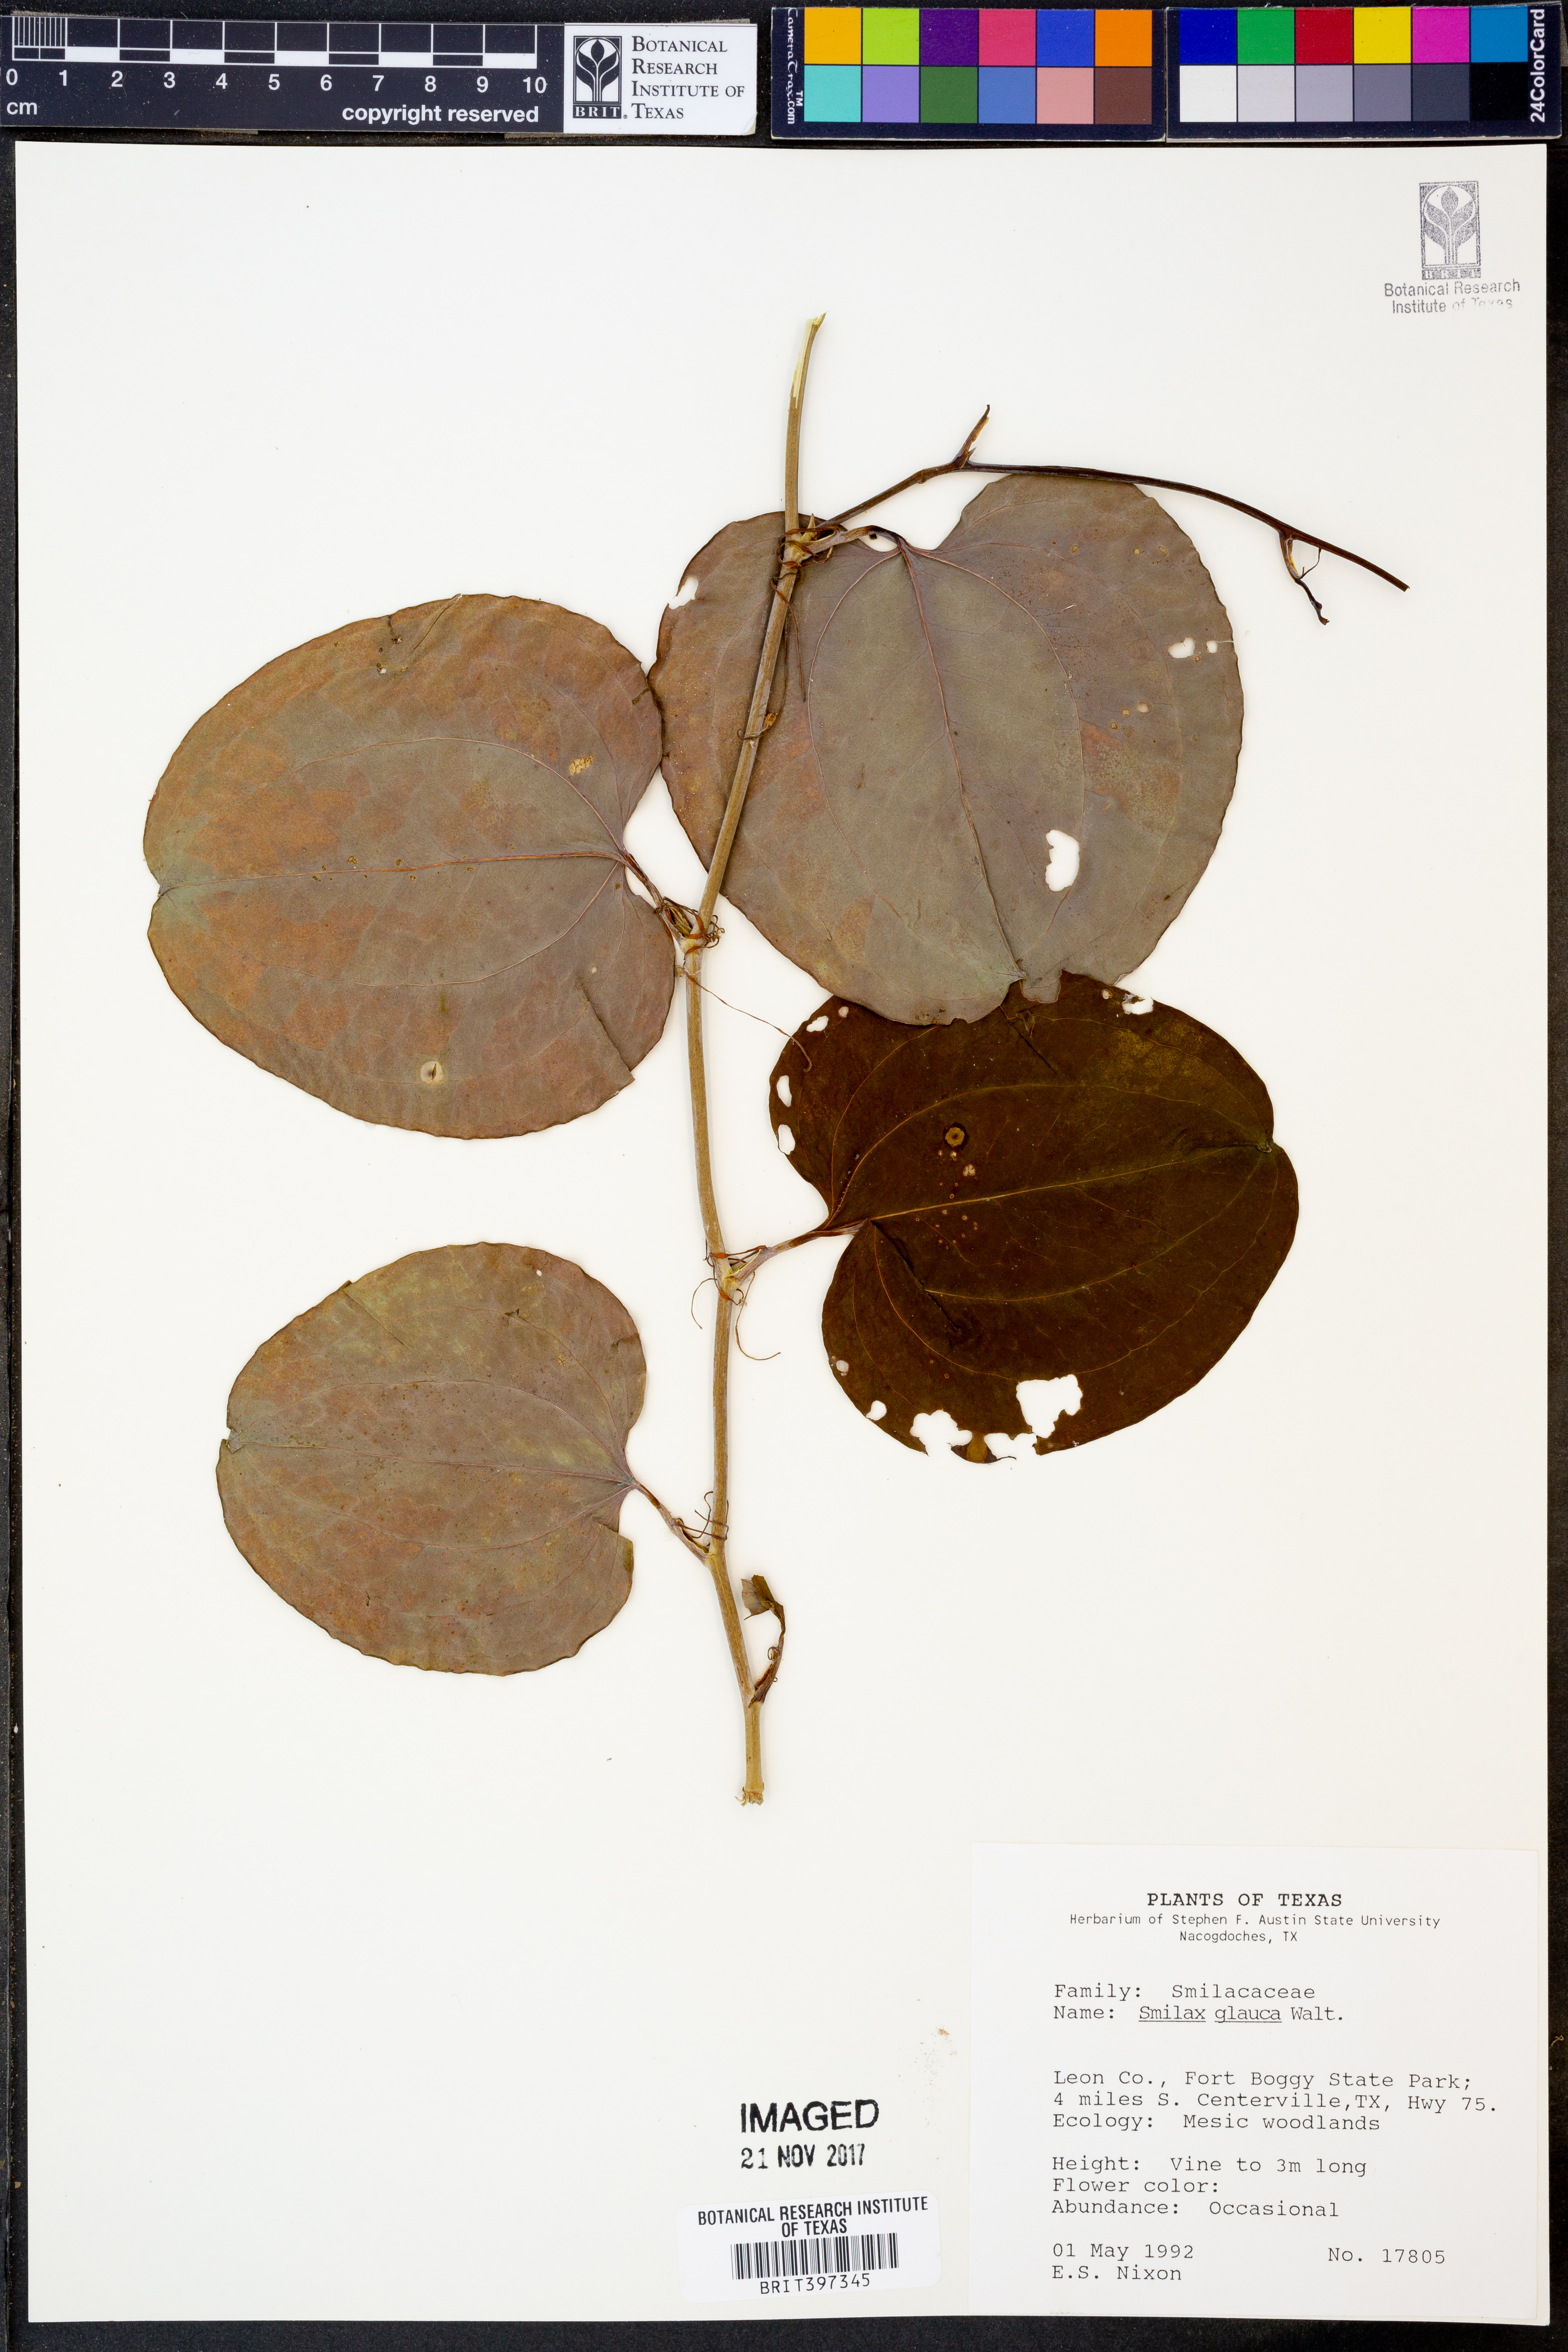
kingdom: Plantae
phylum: Tracheophyta
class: Liliopsida
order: Liliales
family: Smilacaceae
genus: Smilax
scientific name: Smilax glauca
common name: Cat greenbrier
